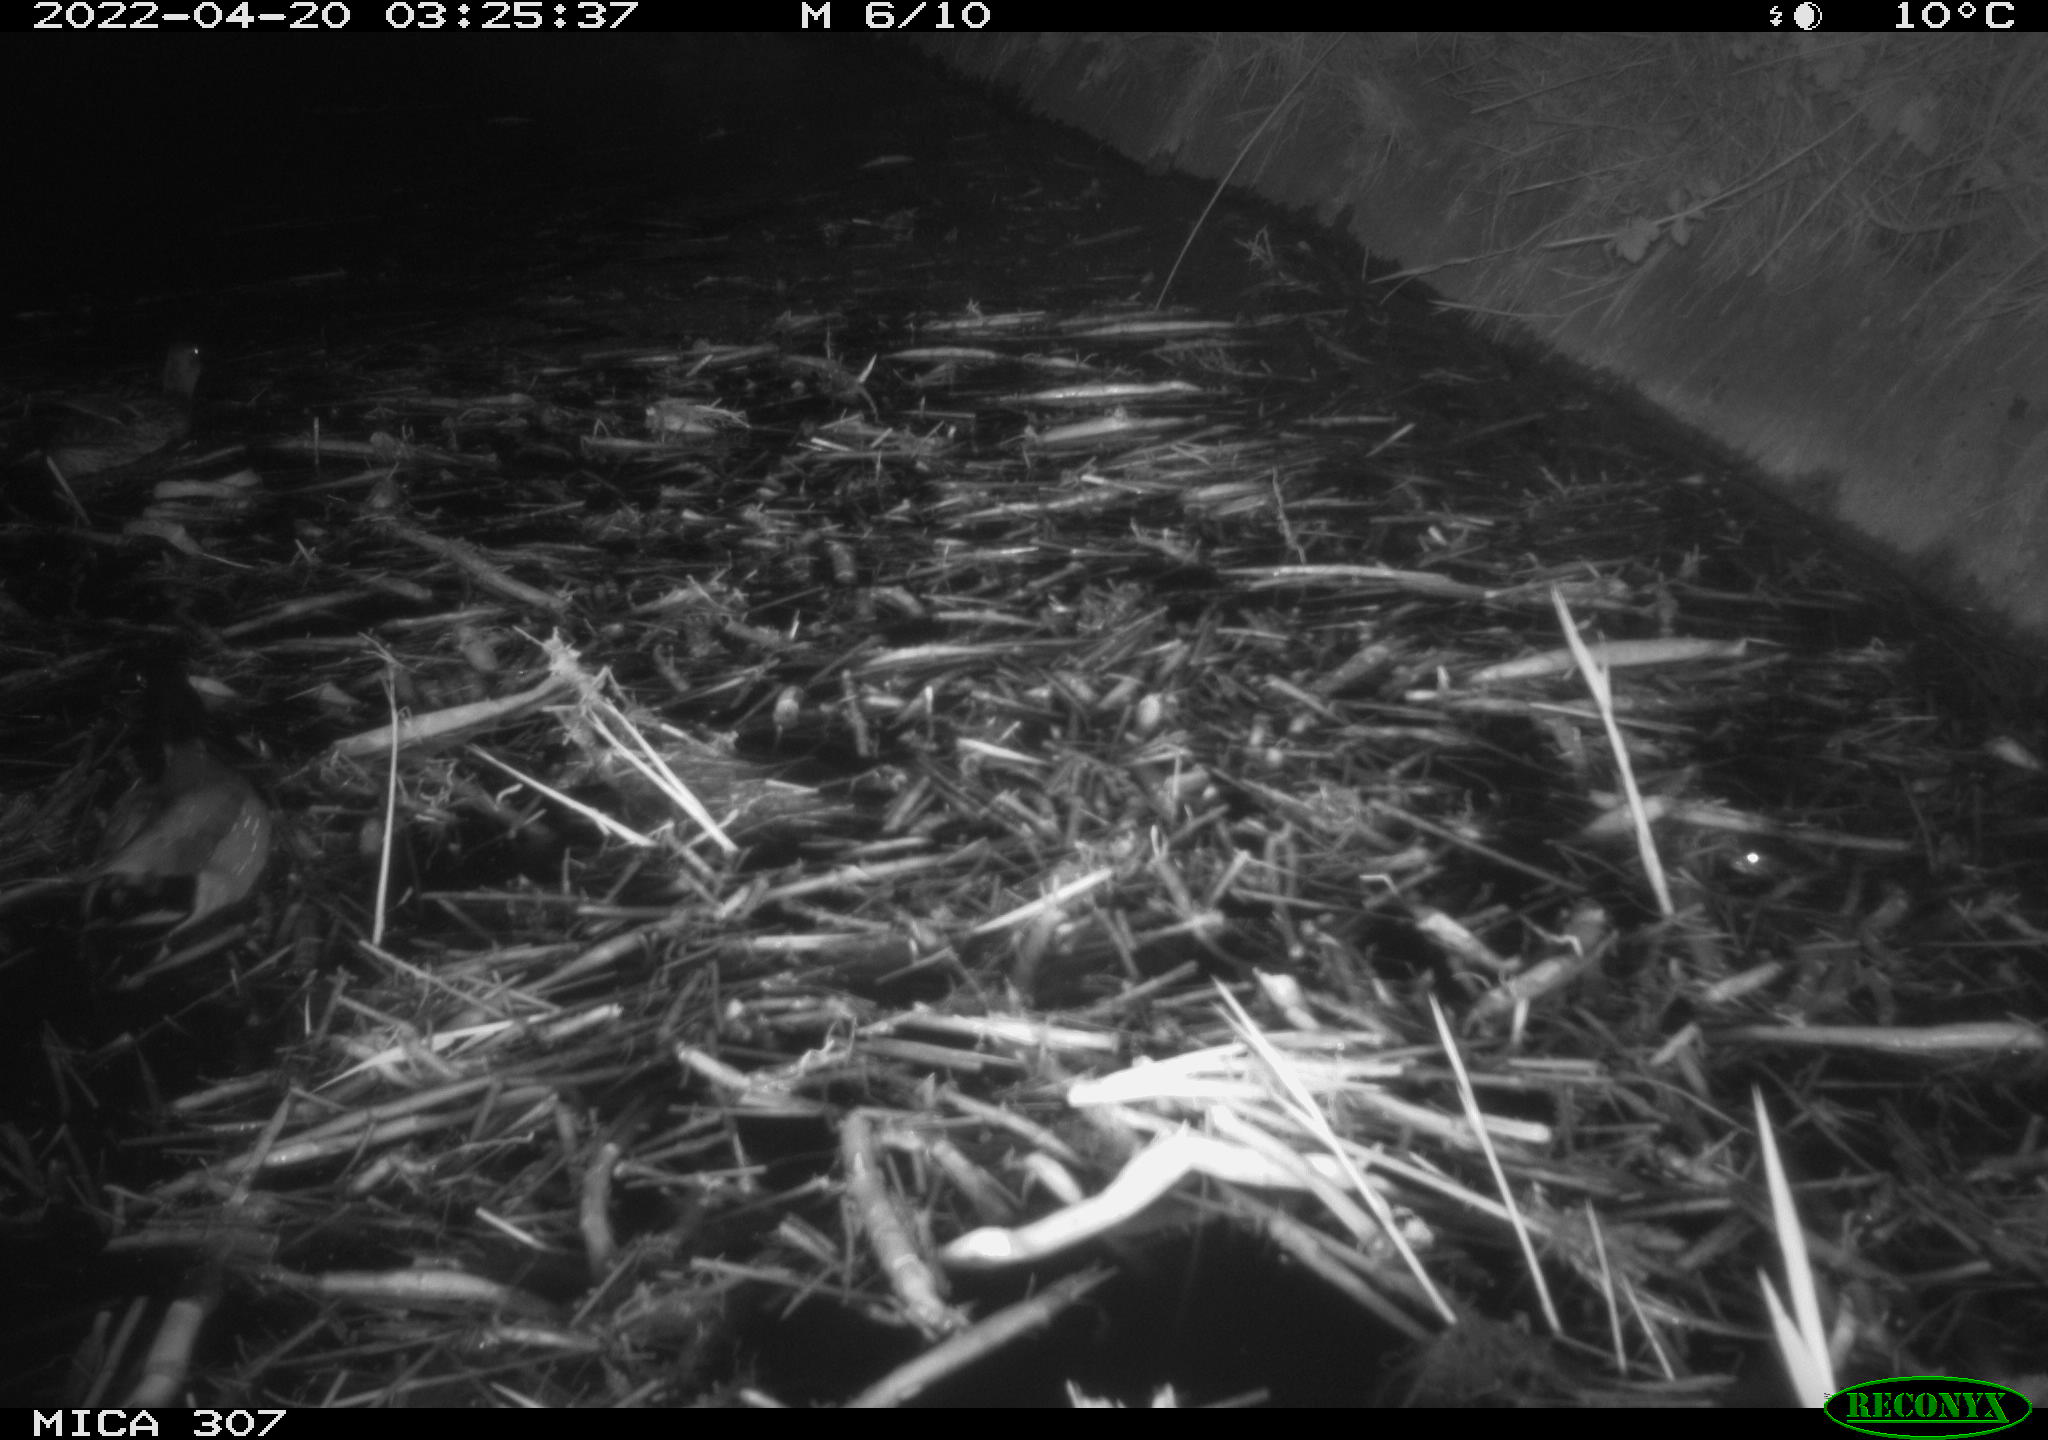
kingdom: Animalia
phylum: Chordata
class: Aves
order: Anseriformes
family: Anatidae
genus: Anas
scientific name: Anas platyrhynchos
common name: Mallard
